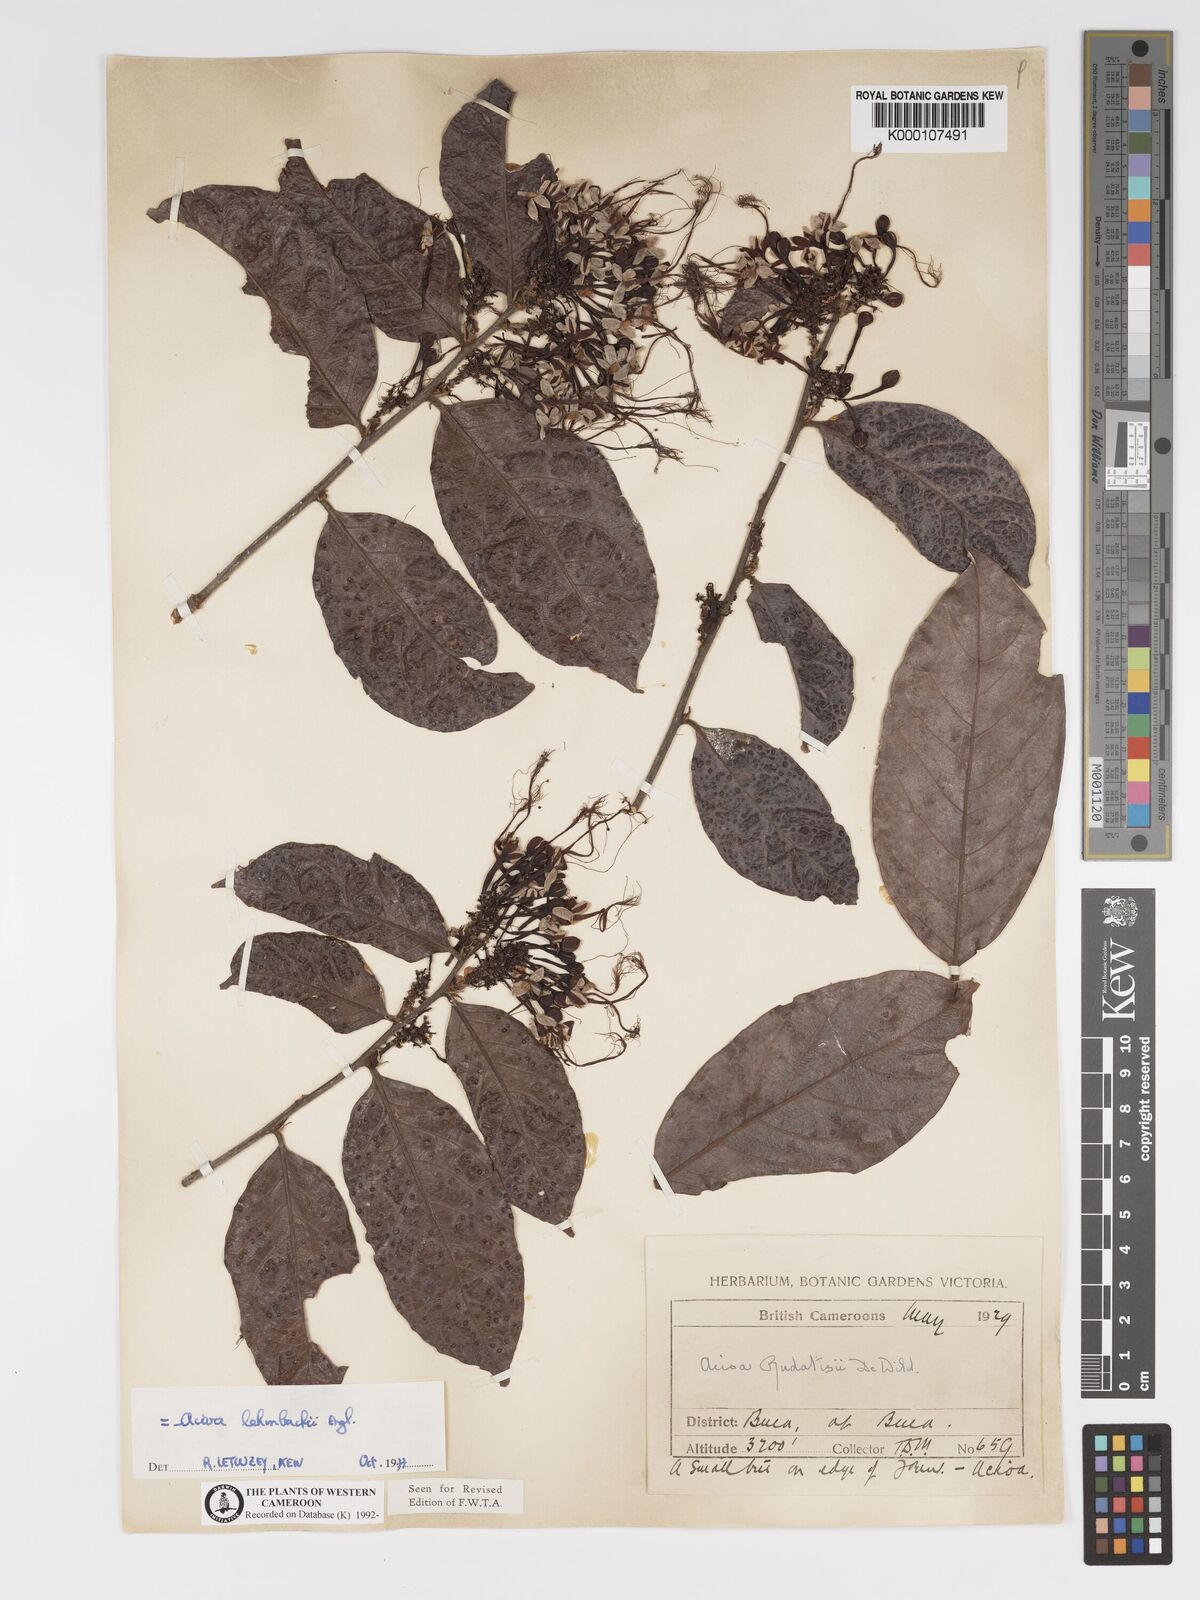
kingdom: Plantae
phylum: Tracheophyta
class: Magnoliopsida
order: Malpighiales
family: Chrysobalanaceae
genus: Dactyladenia
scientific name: Dactyladenia lehmbachii
